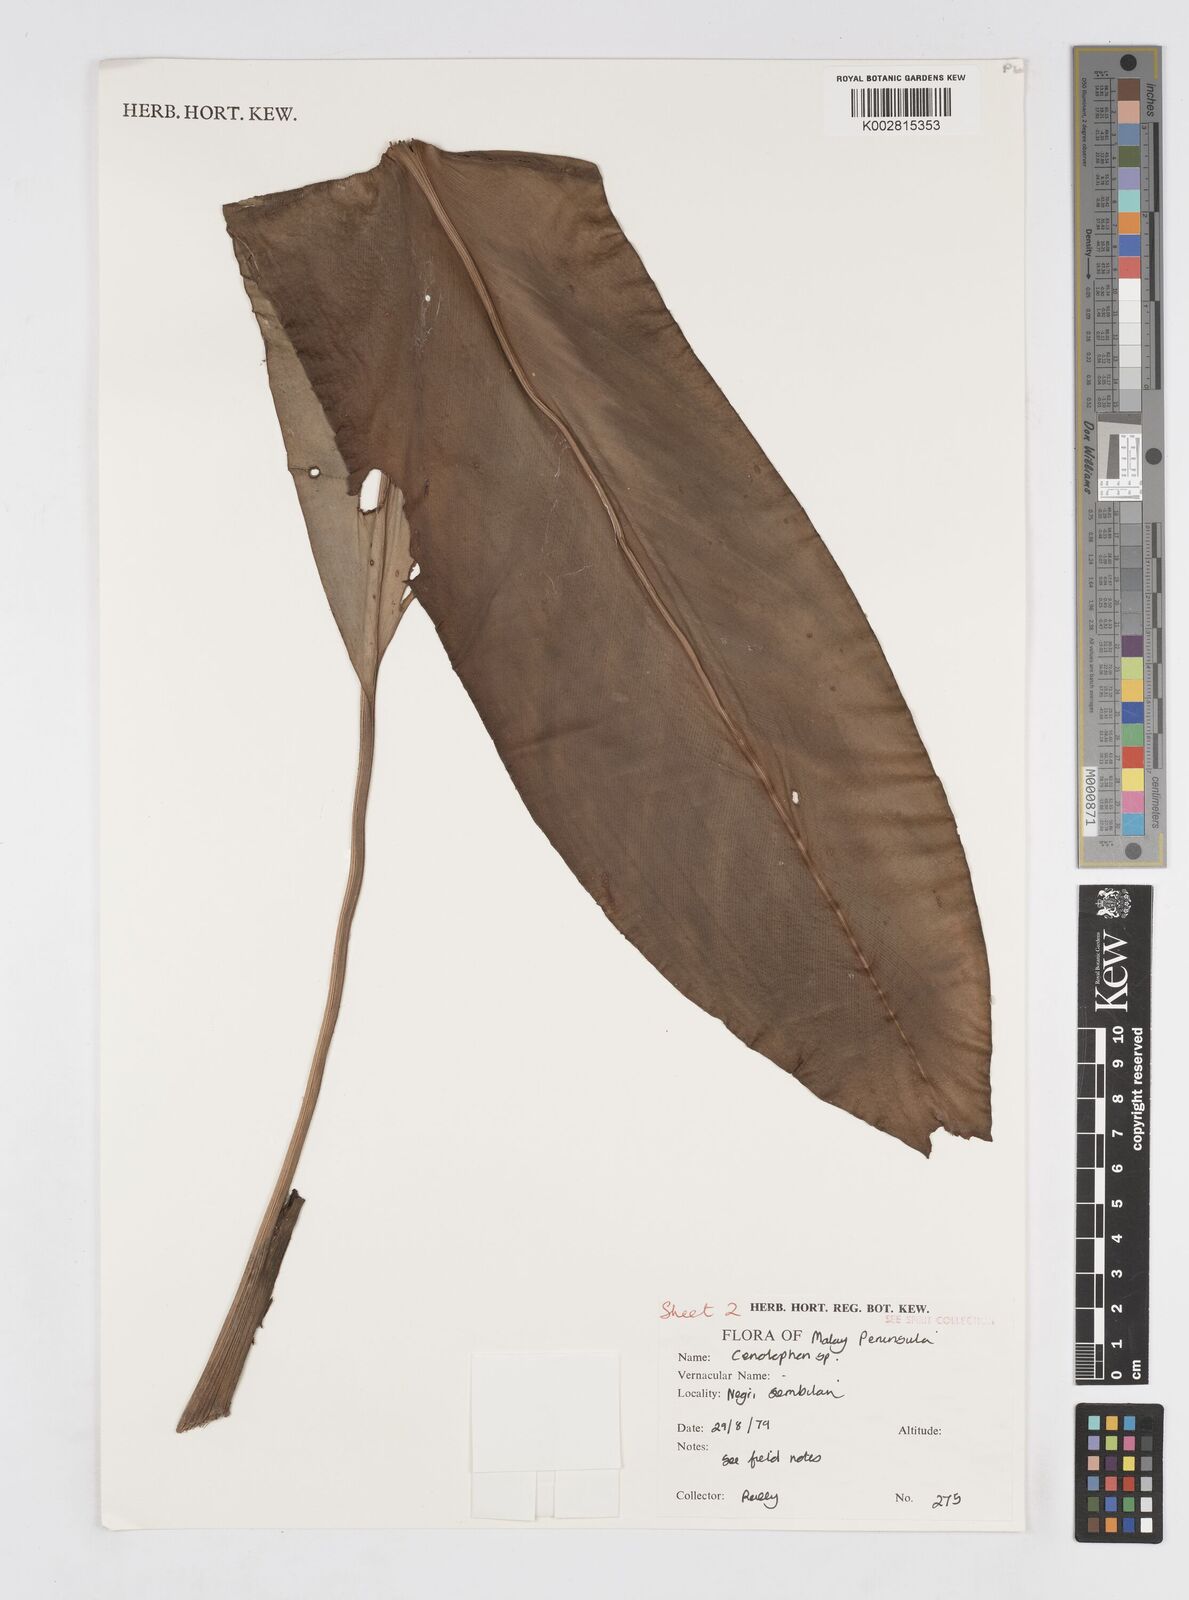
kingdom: Plantae
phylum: Tracheophyta
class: Liliopsida
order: Zingiberales
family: Zingiberaceae
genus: Alpinia
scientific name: Alpinia
